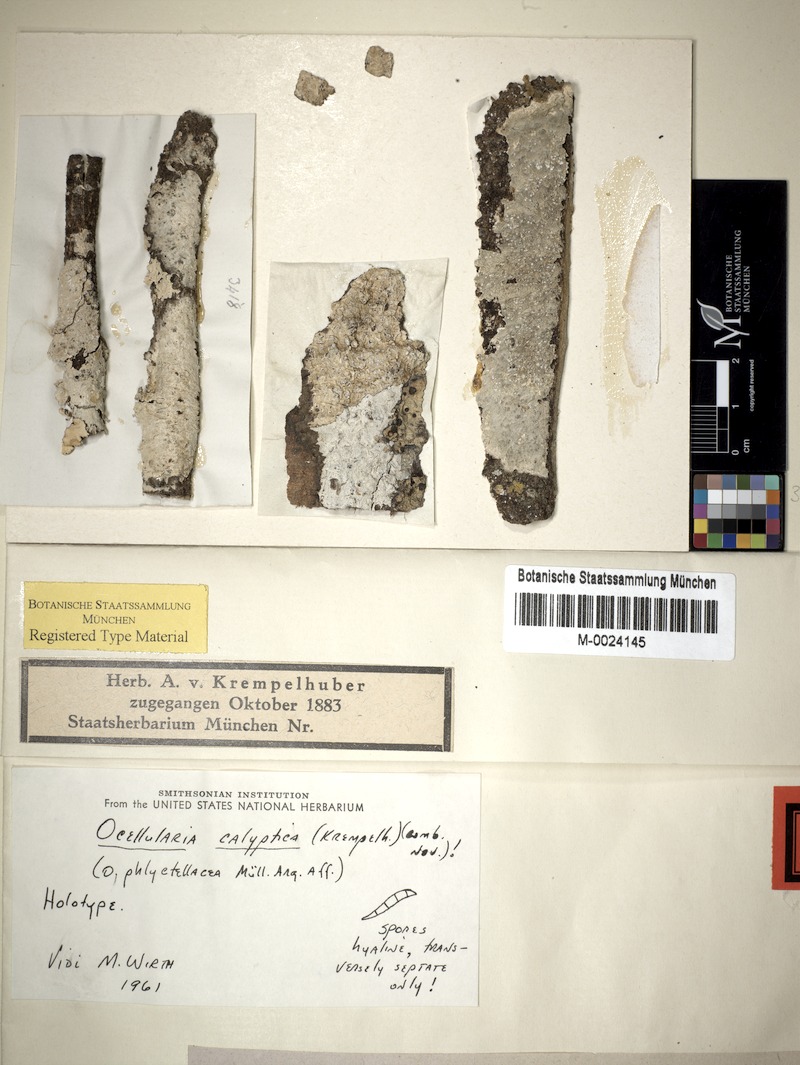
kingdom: Fungi
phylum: Ascomycota
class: Lecanoromycetes
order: Ostropales
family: Graphidaceae
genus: Ocellularia
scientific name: Ocellularia
